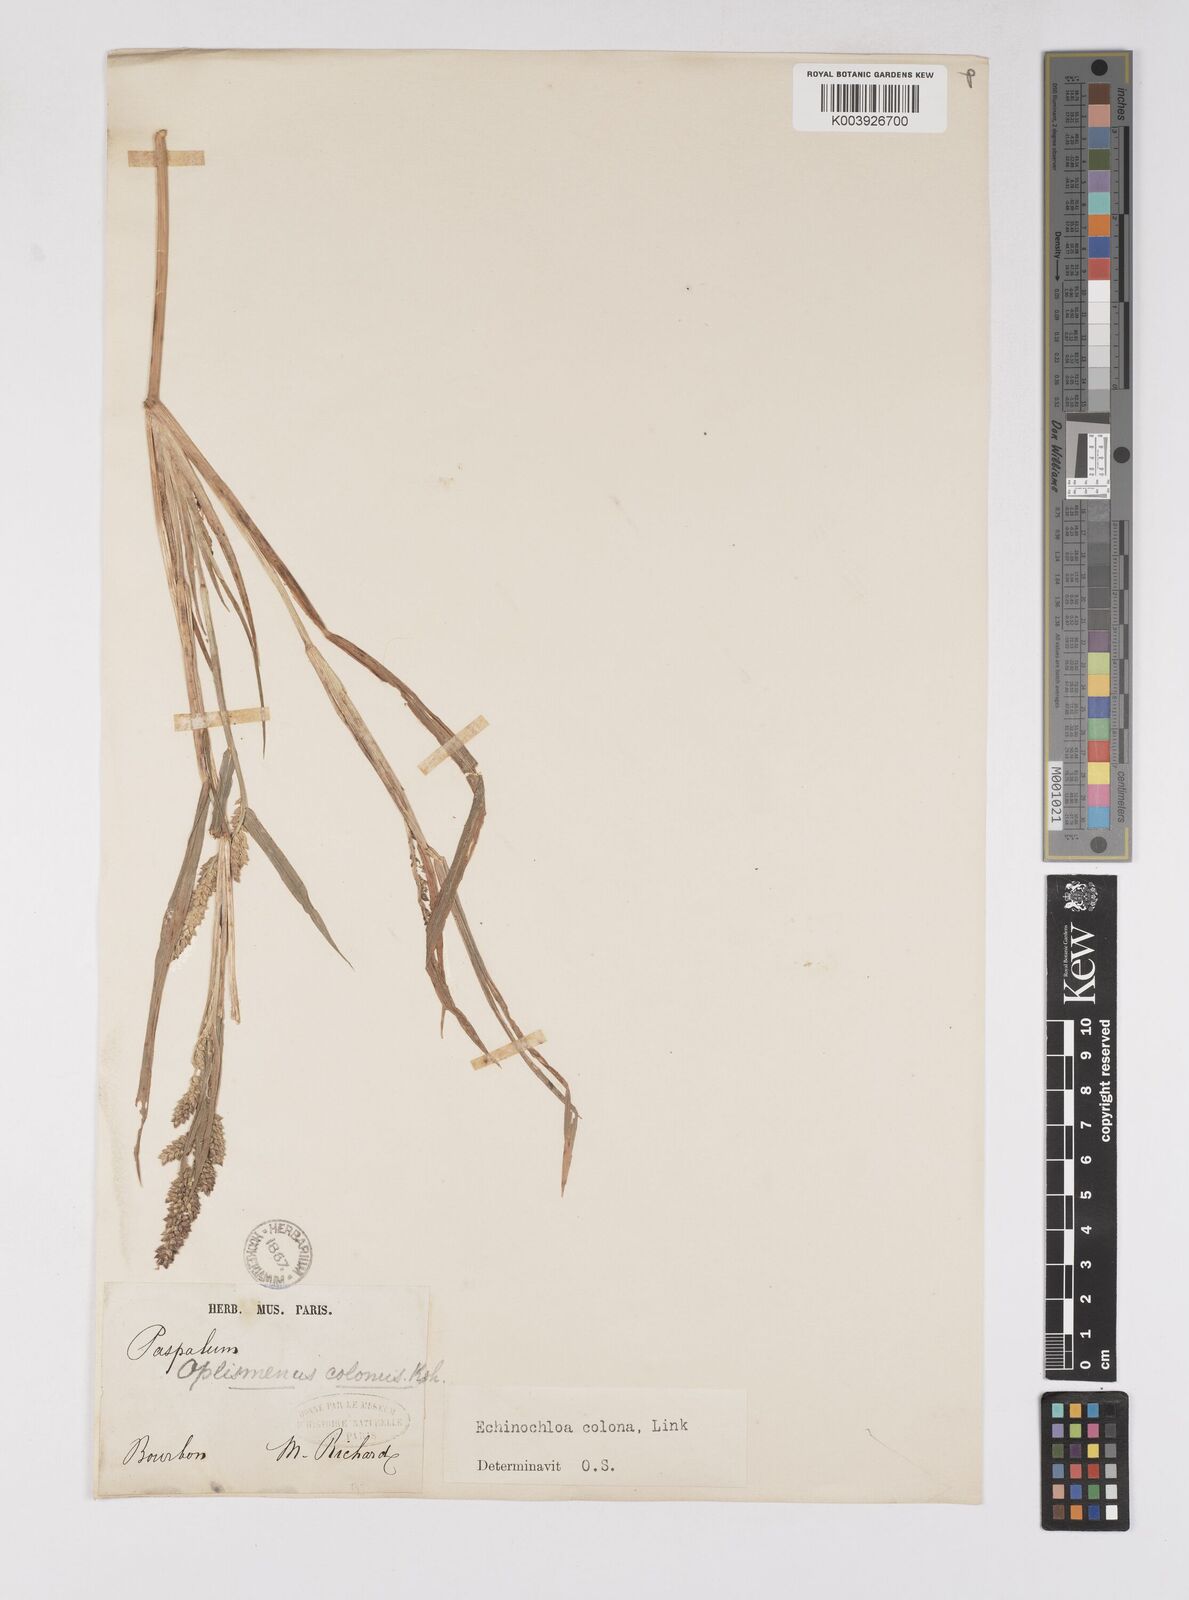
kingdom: Plantae
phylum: Tracheophyta
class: Liliopsida
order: Poales
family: Poaceae
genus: Echinochloa
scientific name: Echinochloa colonum
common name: Jungle rice
